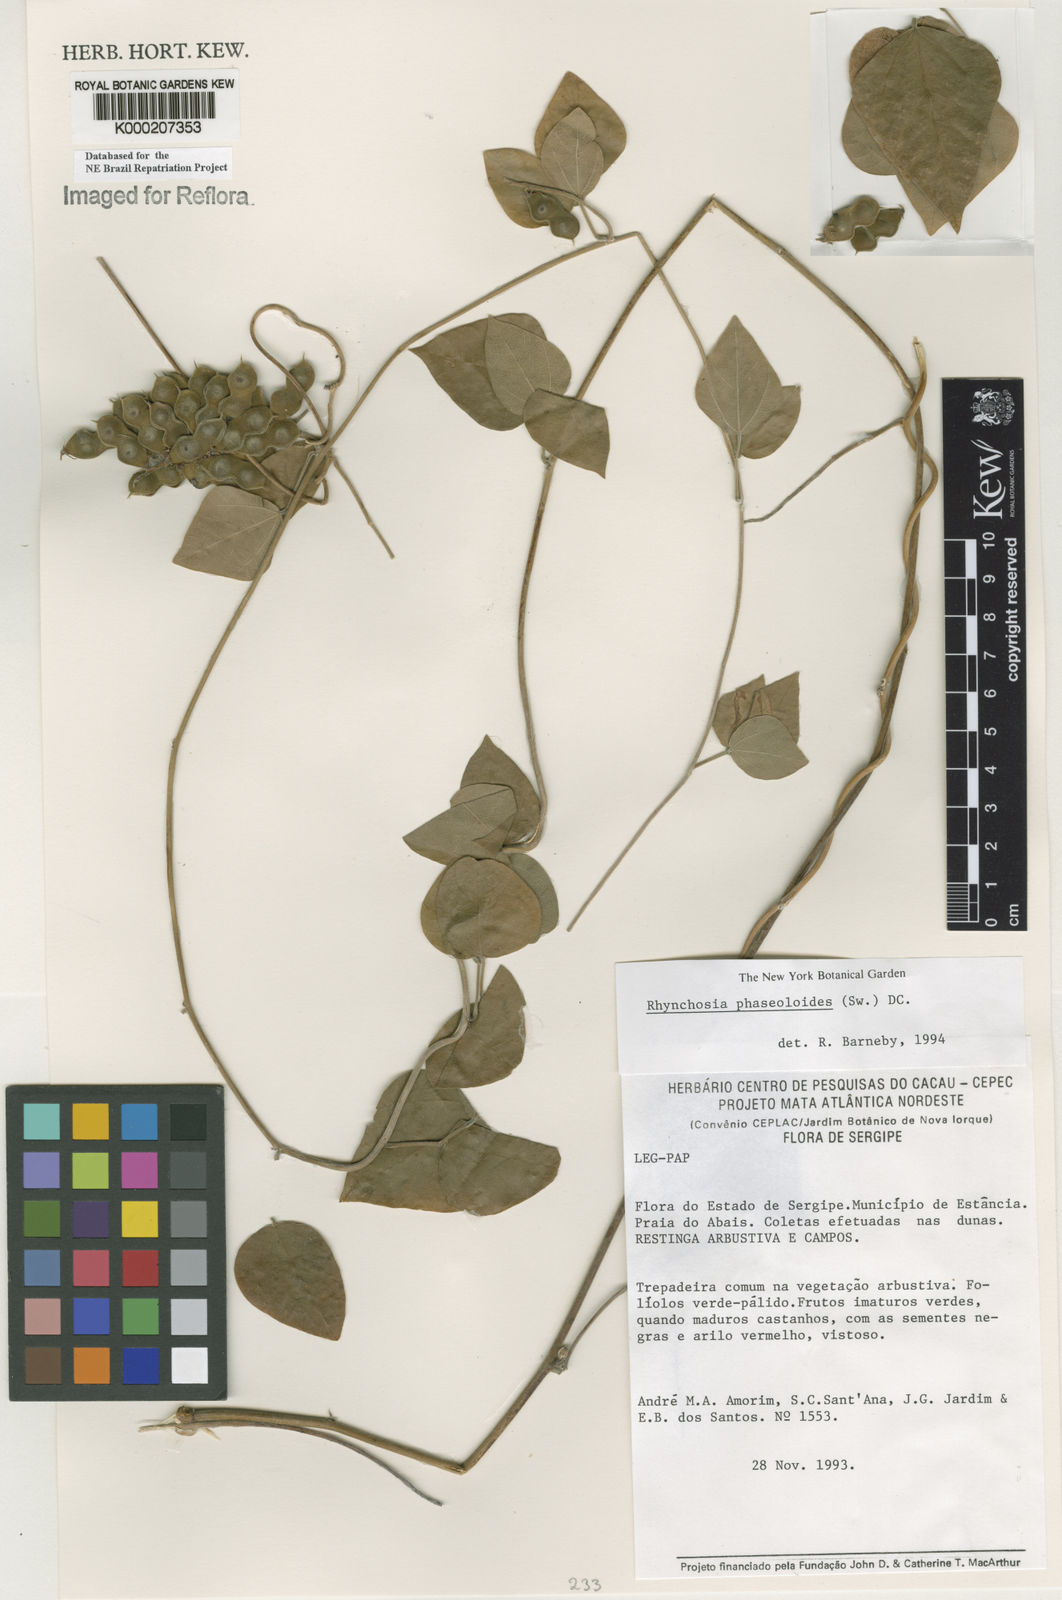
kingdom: Plantae
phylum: Tracheophyta
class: Magnoliopsida
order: Fabales
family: Fabaceae
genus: Rhynchosia
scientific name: Rhynchosia phaseoloides
